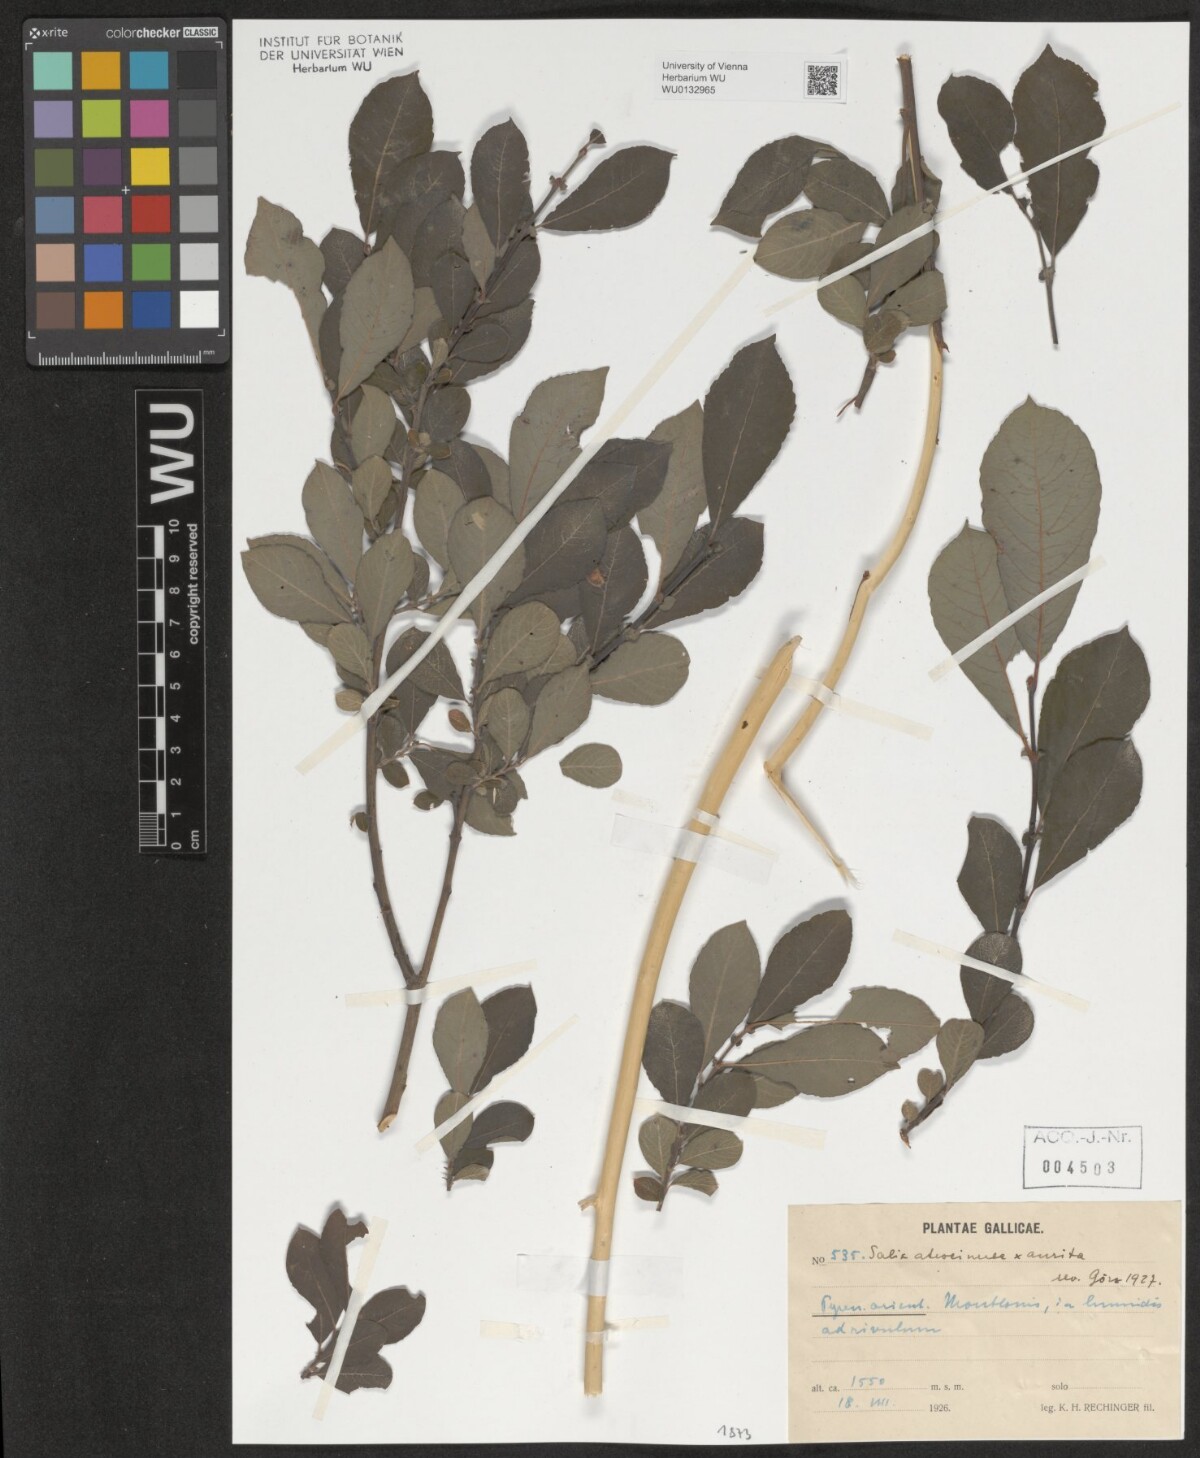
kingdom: Plantae
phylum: Tracheophyta
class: Magnoliopsida
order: Malpighiales
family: Salicaceae
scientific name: Salicaceae
